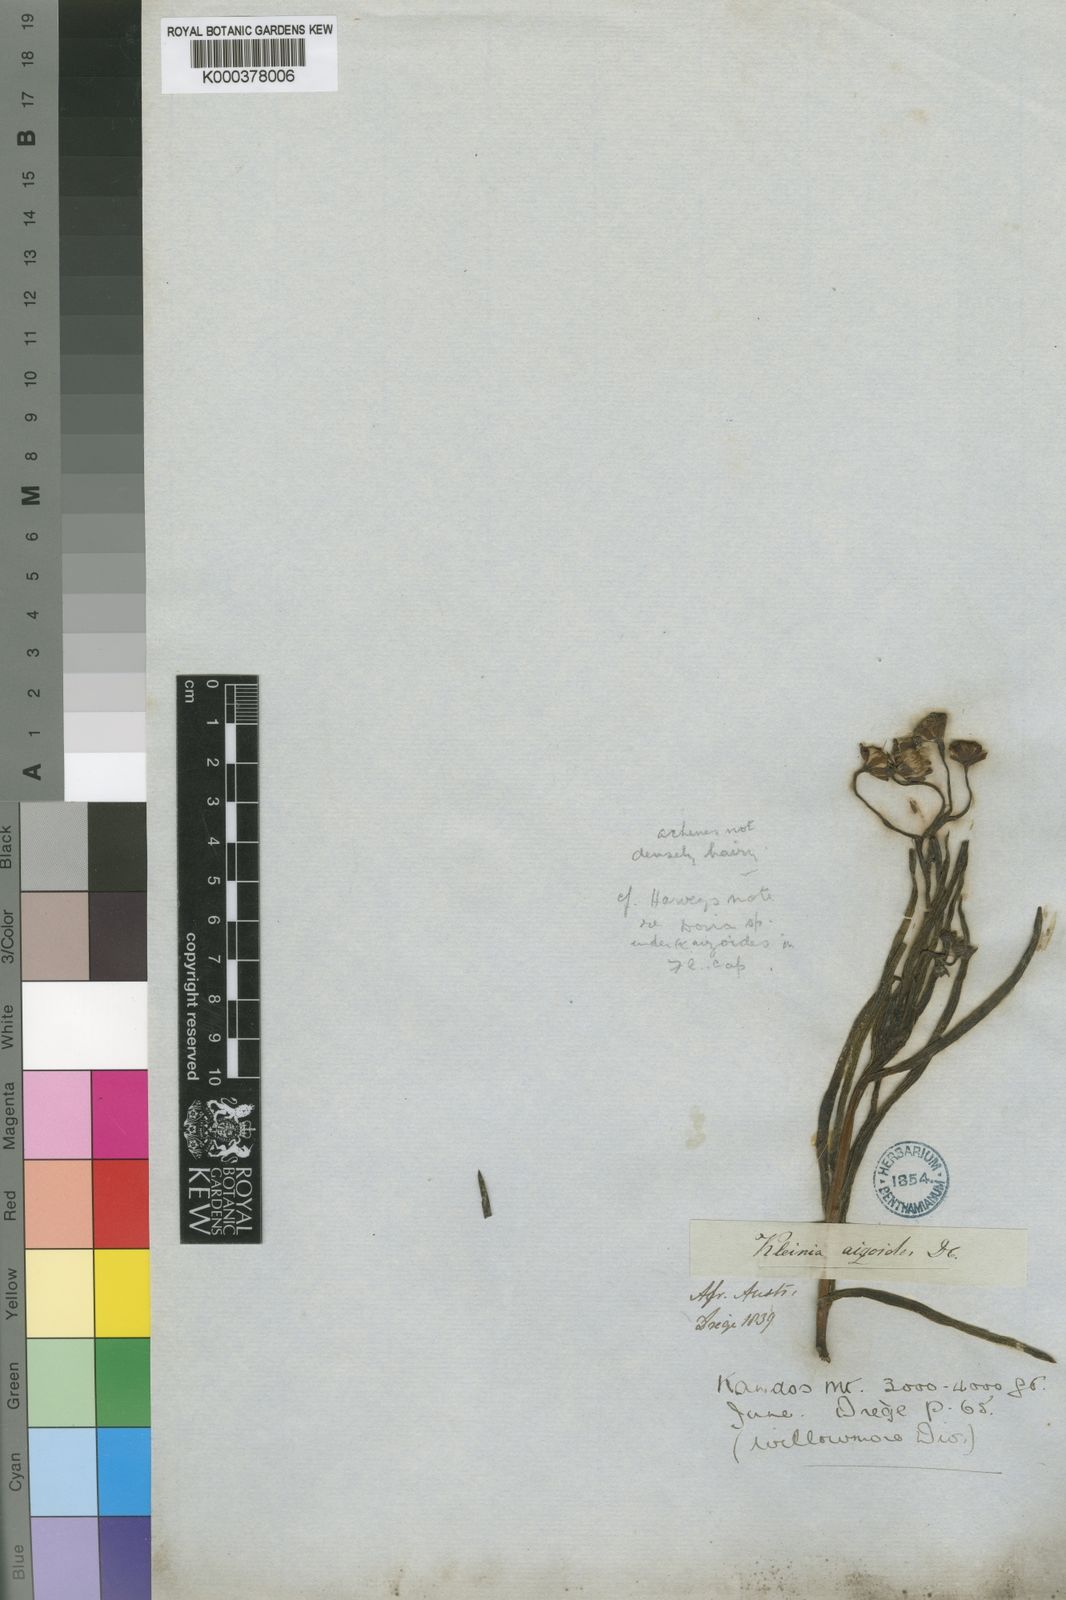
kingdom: Plantae
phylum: Tracheophyta
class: Magnoliopsida
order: Asterales
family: Asteraceae
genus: Curio
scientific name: Curio talinoides
